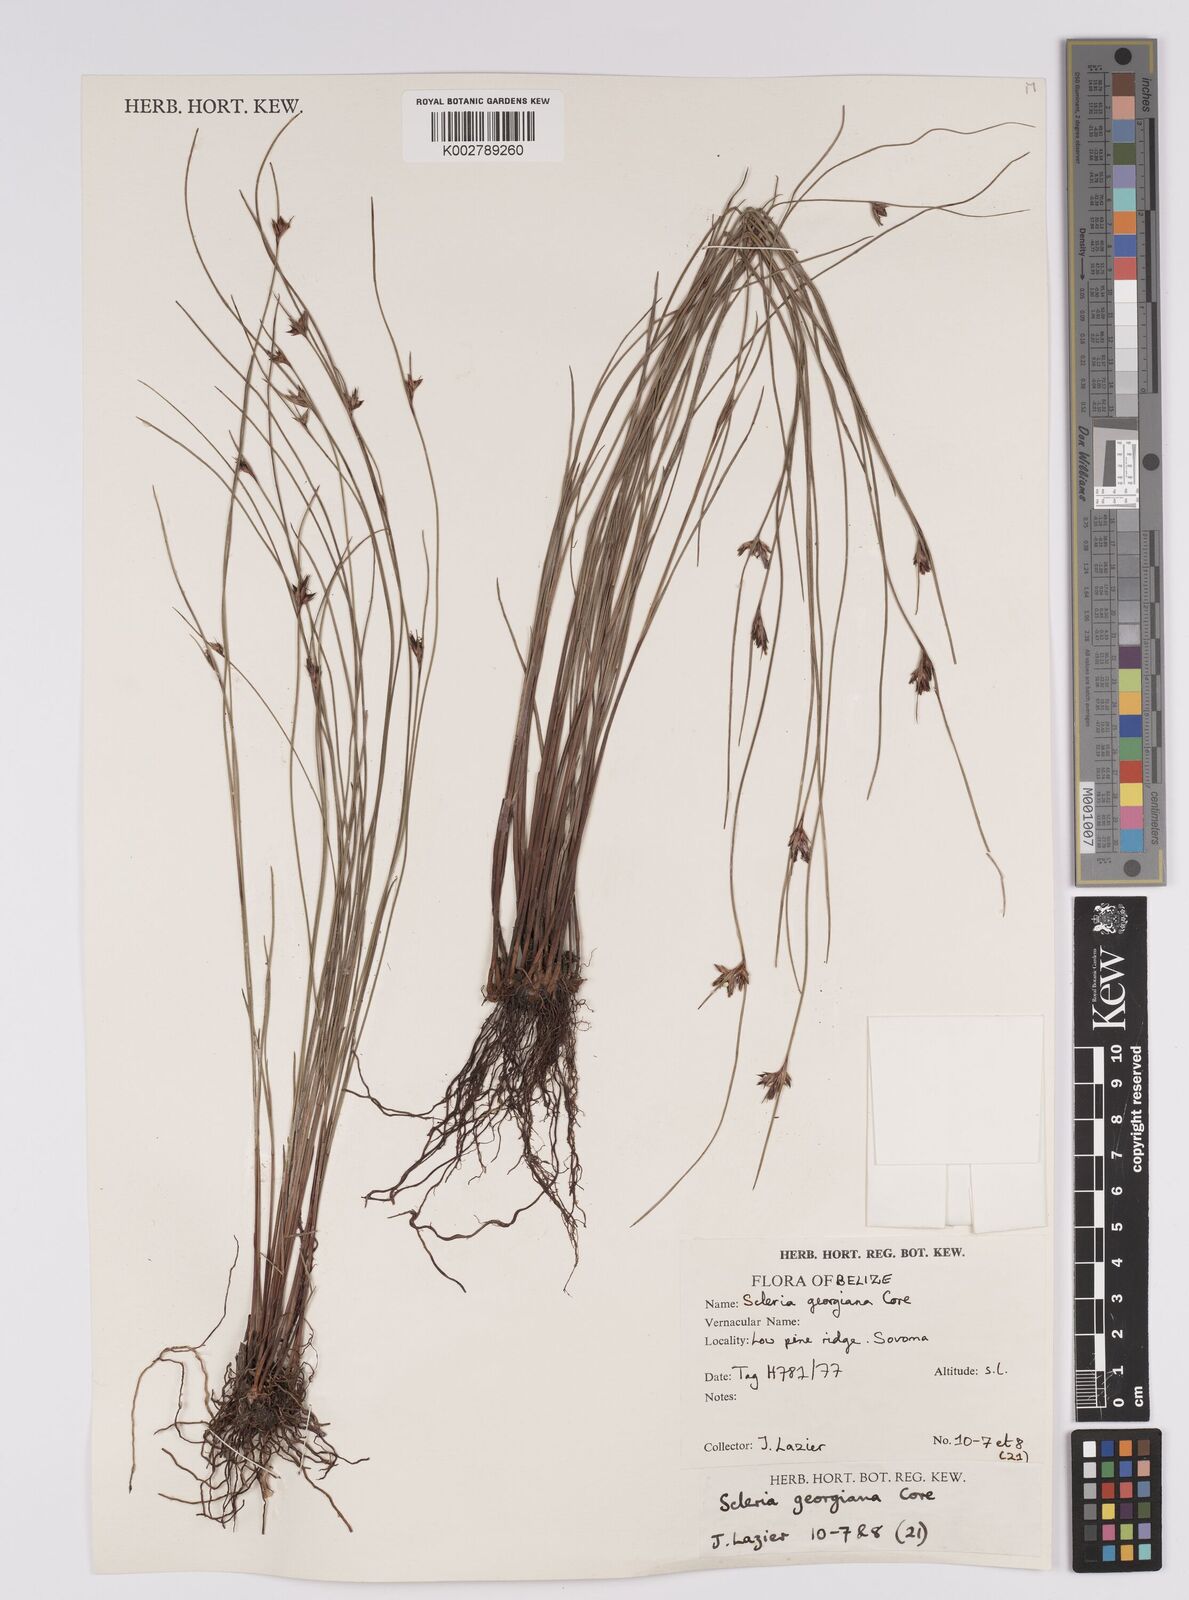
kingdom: Plantae
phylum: Tracheophyta
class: Liliopsida
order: Poales
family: Cyperaceae
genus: Scleria
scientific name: Scleria georgiana
